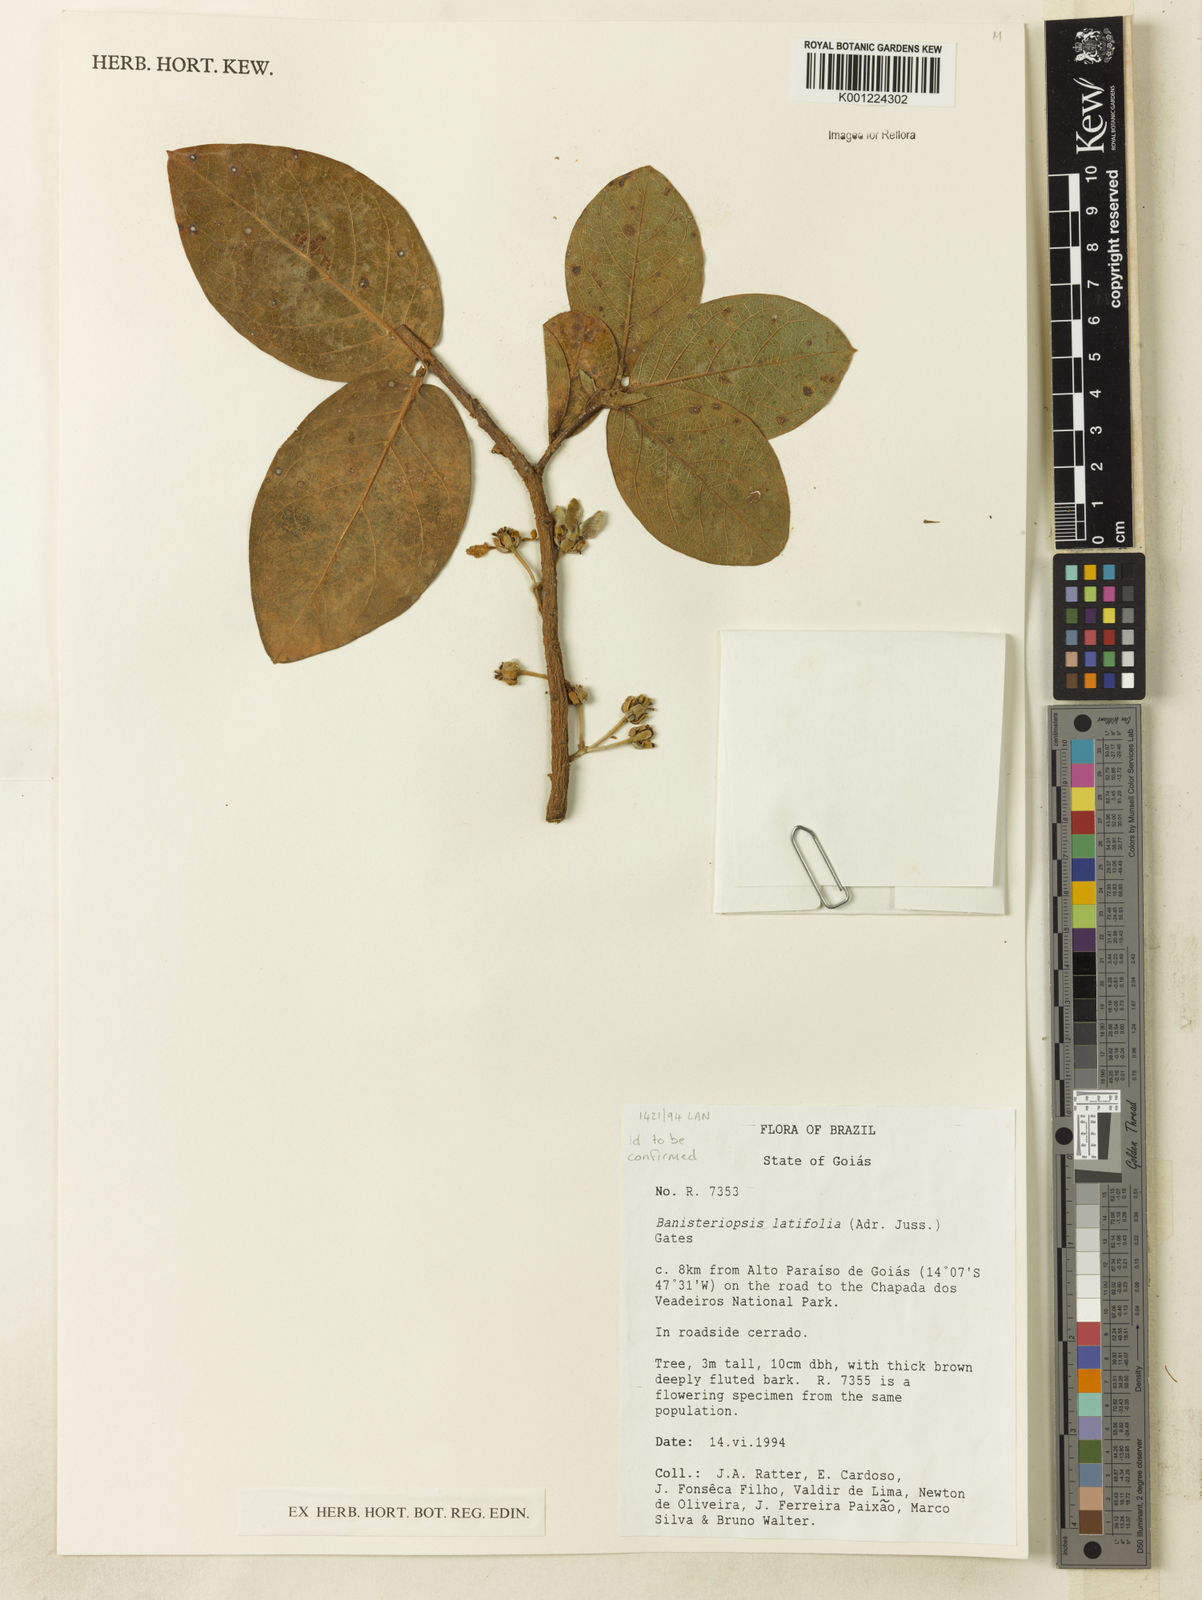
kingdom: Plantae
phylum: Tracheophyta
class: Magnoliopsida
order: Malpighiales
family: Malpighiaceae
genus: Banisteriopsis
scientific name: Banisteriopsis latifolia
